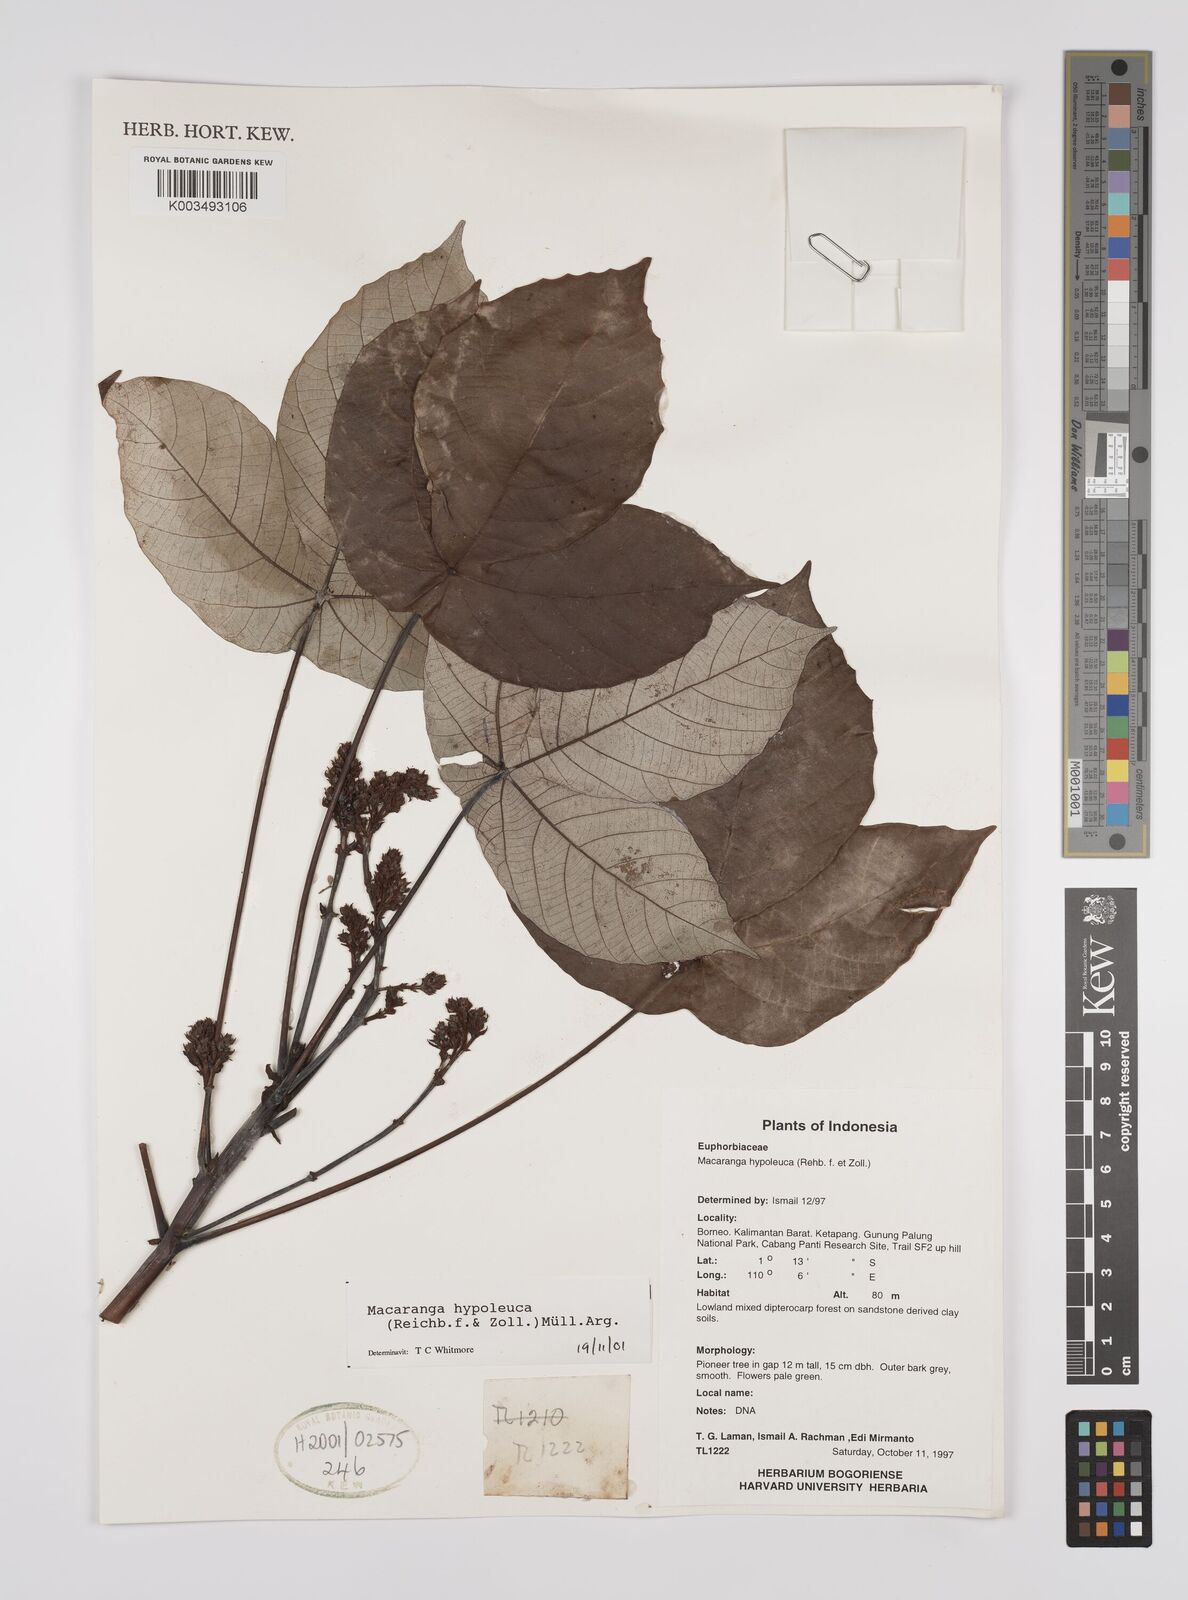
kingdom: Plantae
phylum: Tracheophyta
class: Magnoliopsida
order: Malpighiales
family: Euphorbiaceae
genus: Macaranga
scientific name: Macaranga hypoleuca
